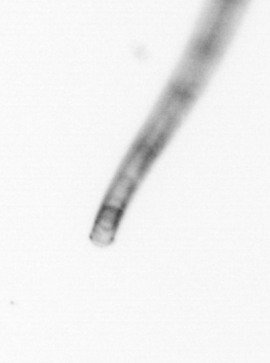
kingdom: Chromista
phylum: Ochrophyta
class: Bacillariophyceae
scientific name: Bacillariophyceae
